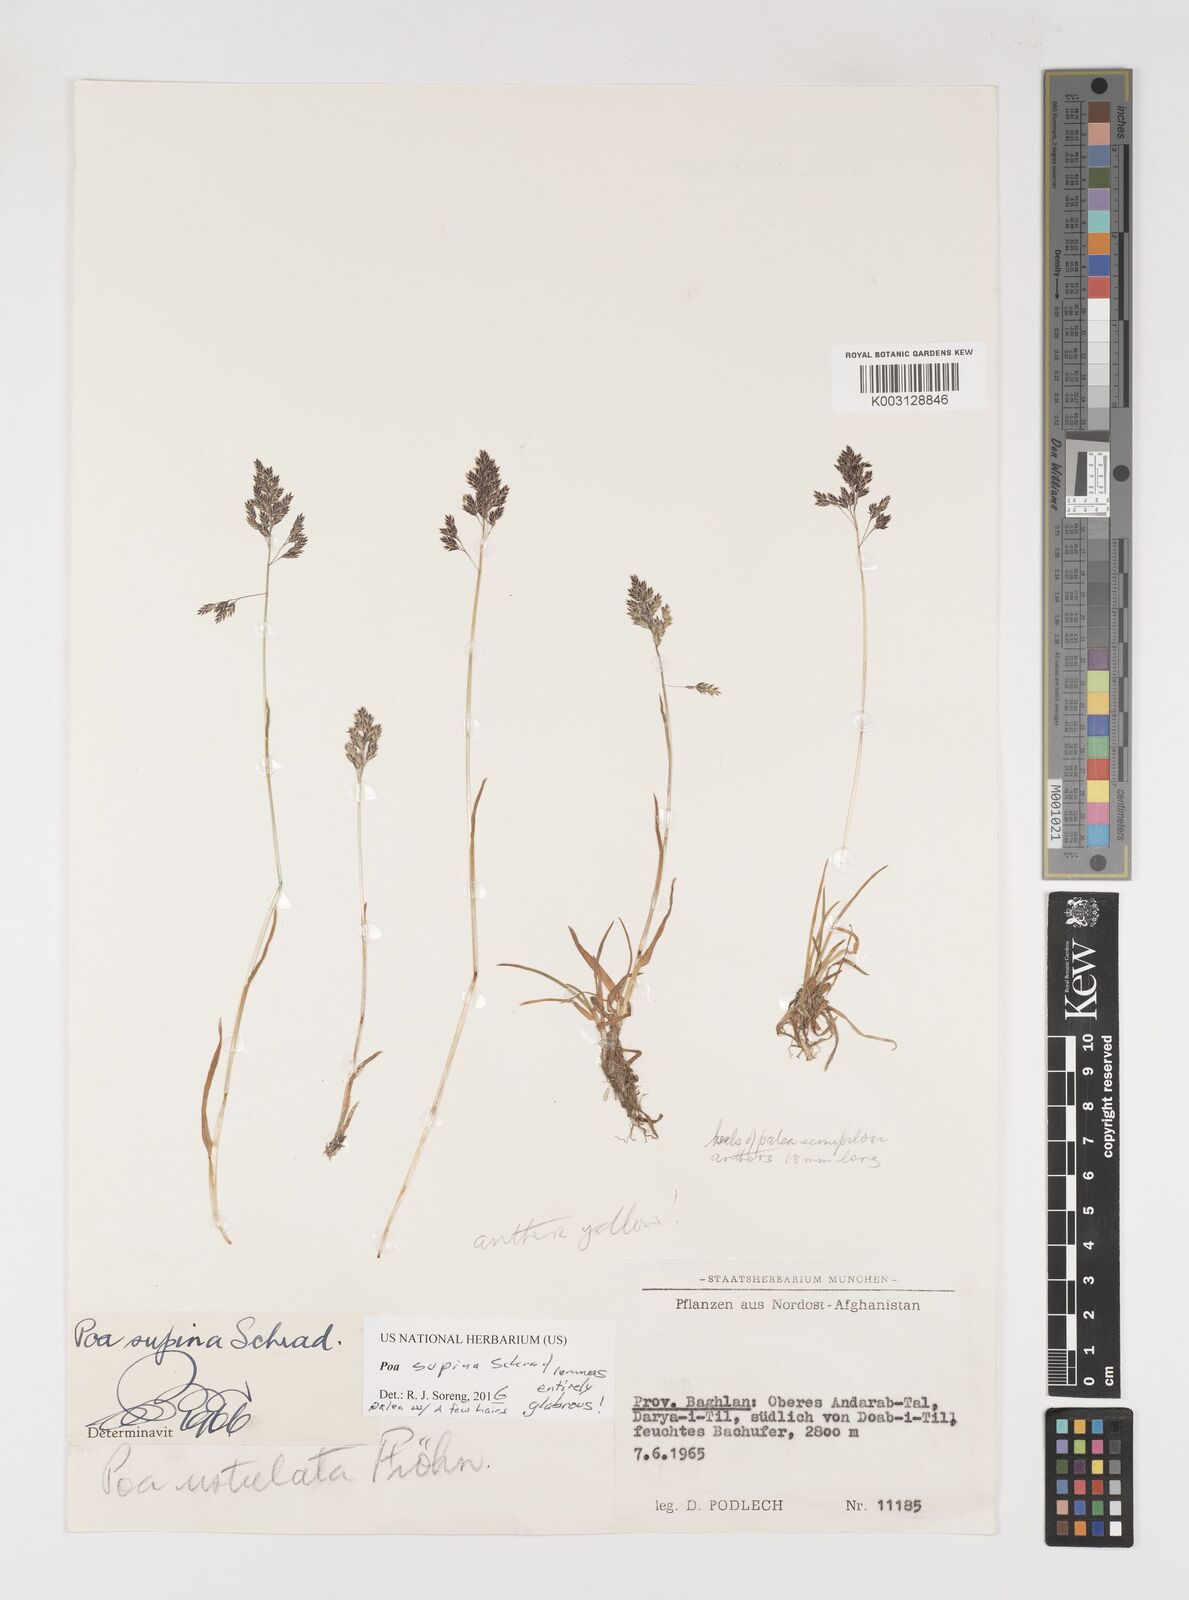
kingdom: Plantae
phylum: Tracheophyta
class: Liliopsida
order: Poales
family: Poaceae
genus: Poa
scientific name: Poa supina
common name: Supina bluegrass
